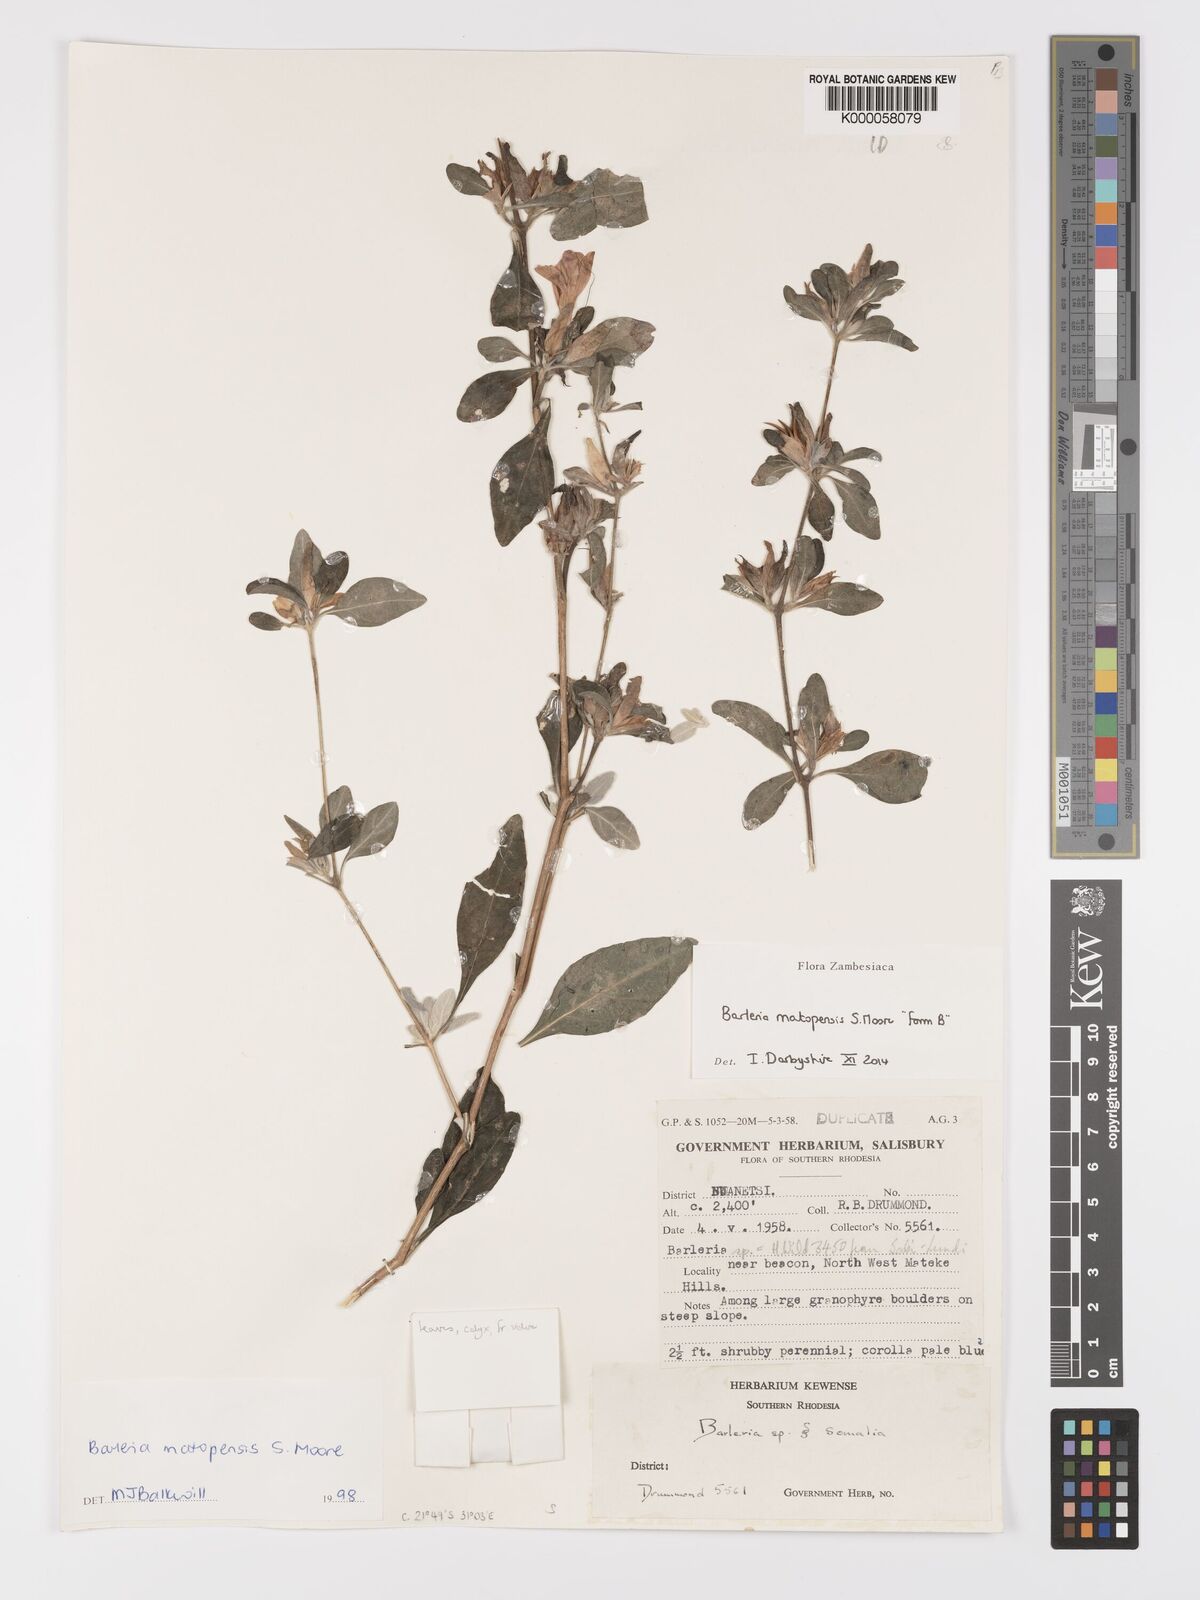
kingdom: Plantae
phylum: Tracheophyta
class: Magnoliopsida
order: Lamiales
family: Acanthaceae
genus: Barleria
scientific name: Barleria matopensis
